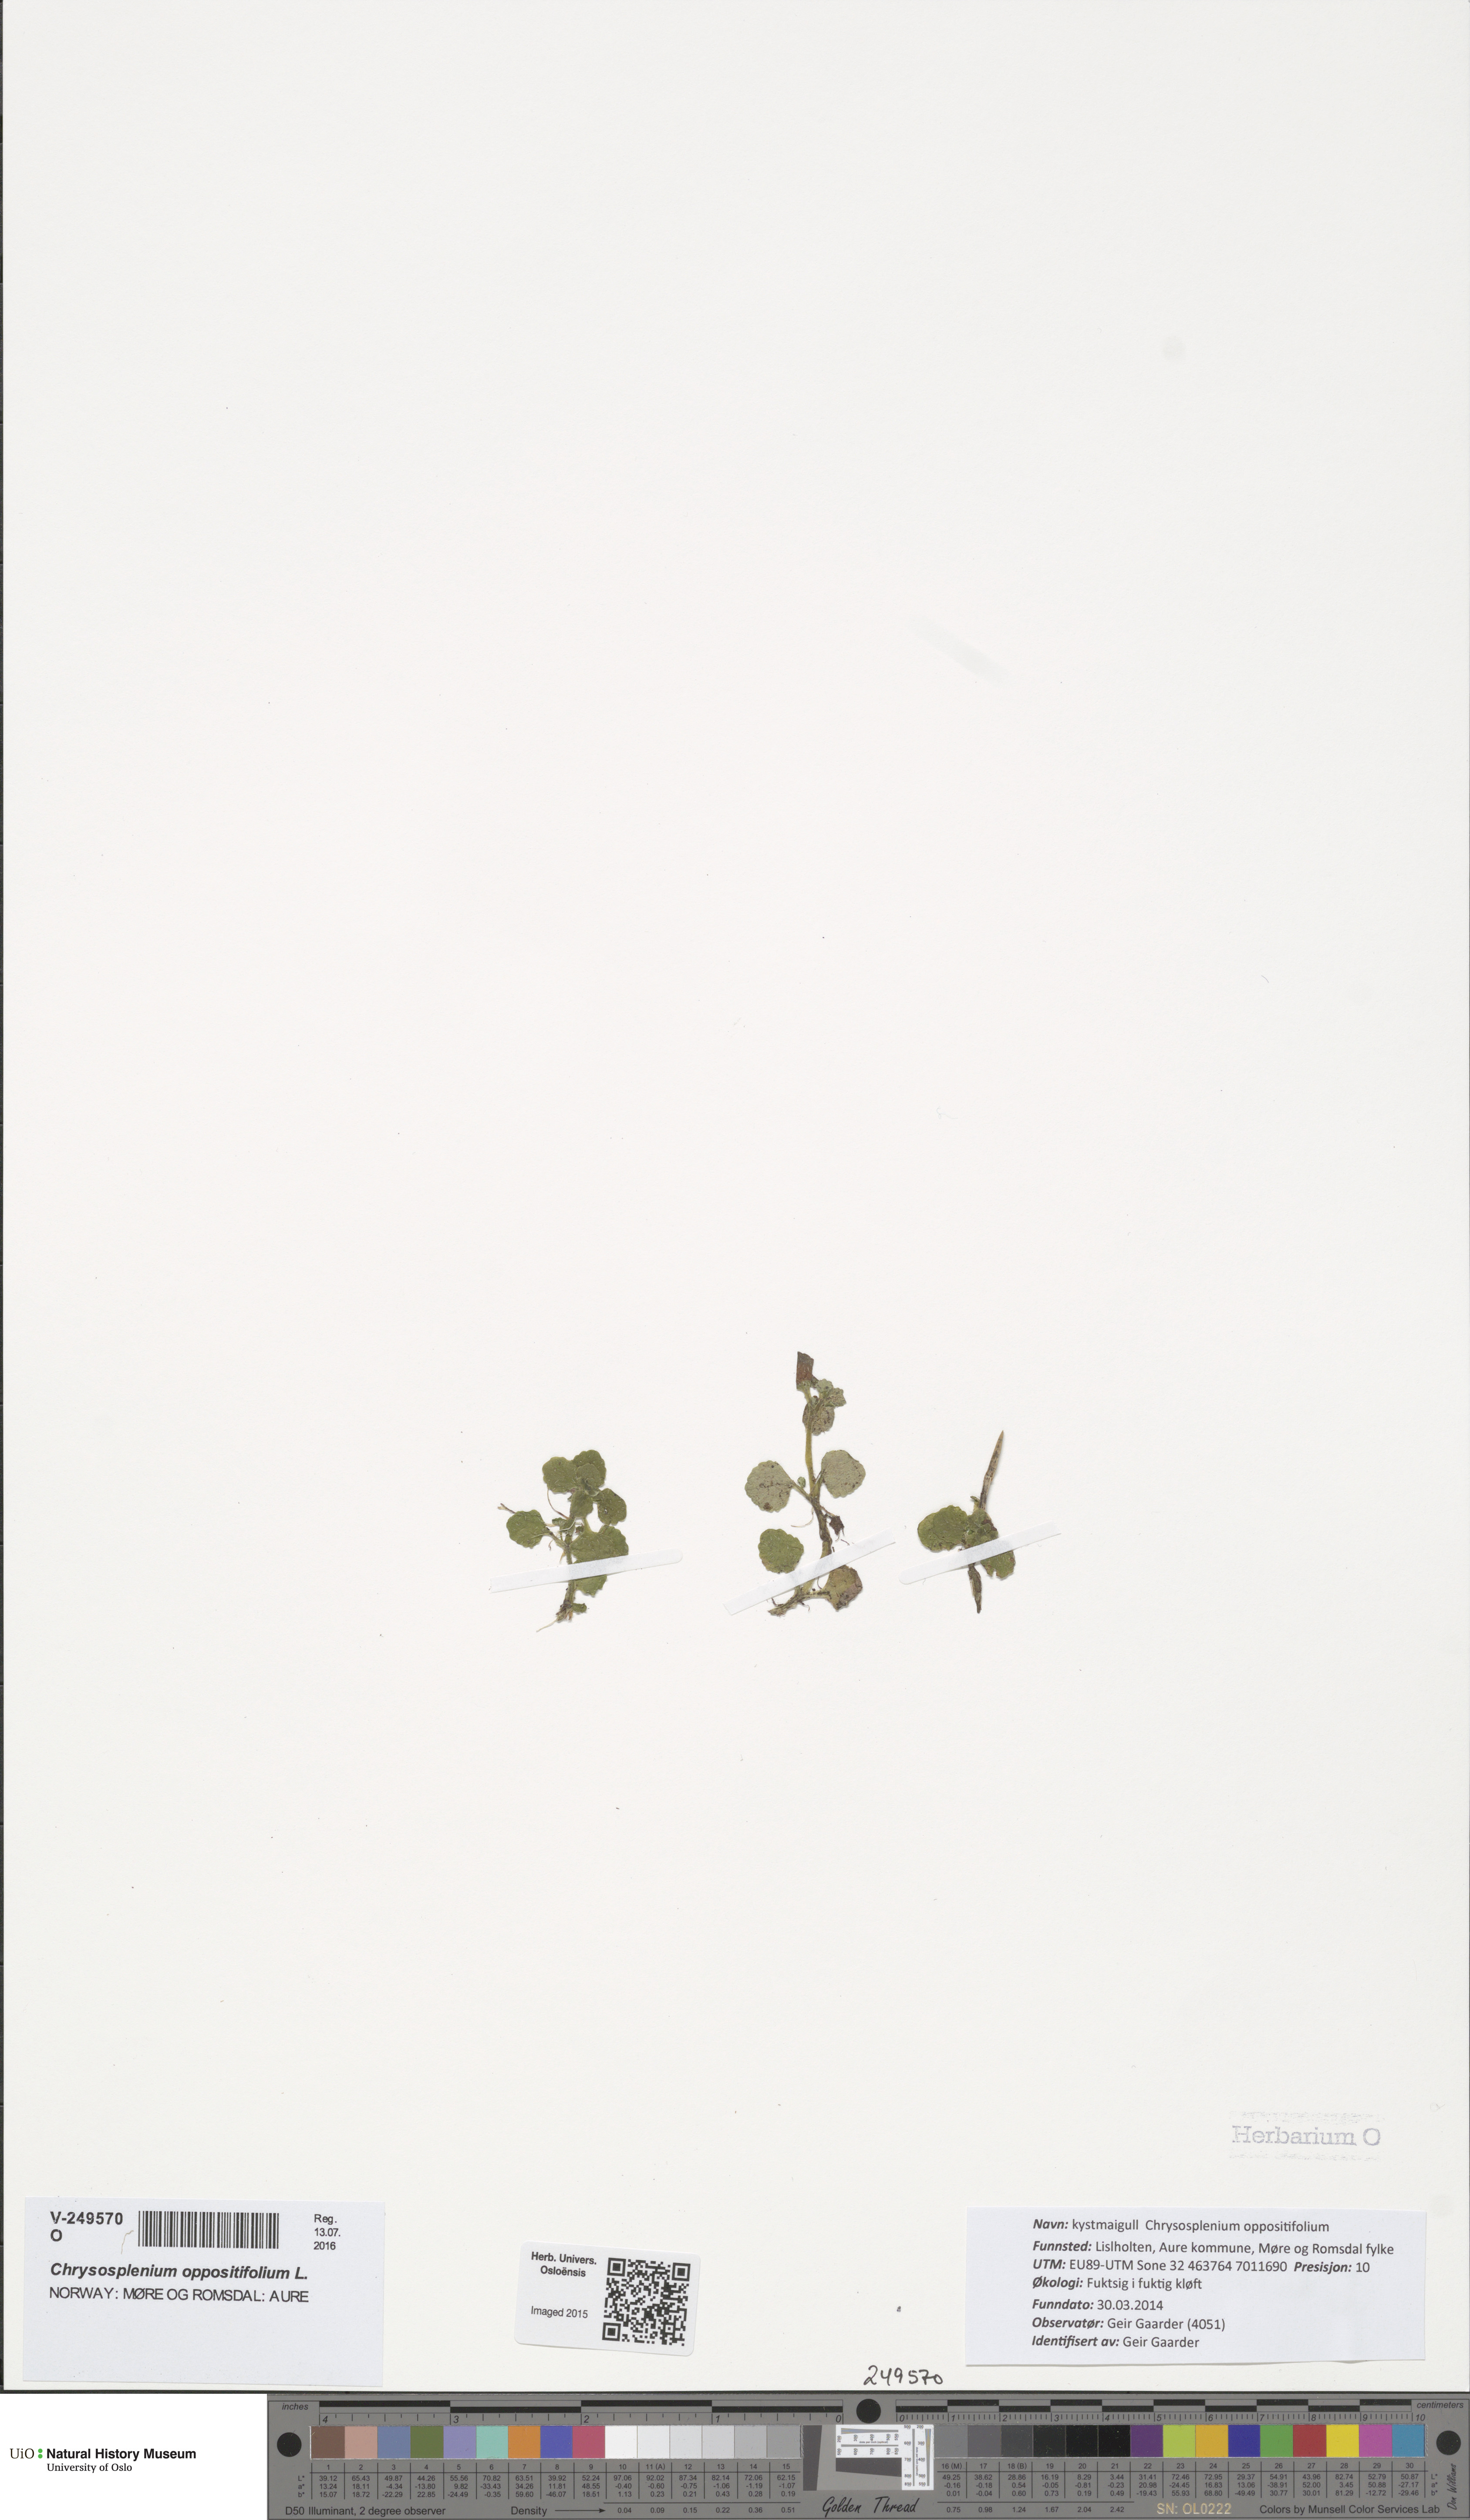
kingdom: Plantae
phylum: Tracheophyta
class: Magnoliopsida
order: Saxifragales
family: Saxifragaceae
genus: Chrysosplenium
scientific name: Chrysosplenium oppositifolium
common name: Opposite-leaved golden-saxifrage
